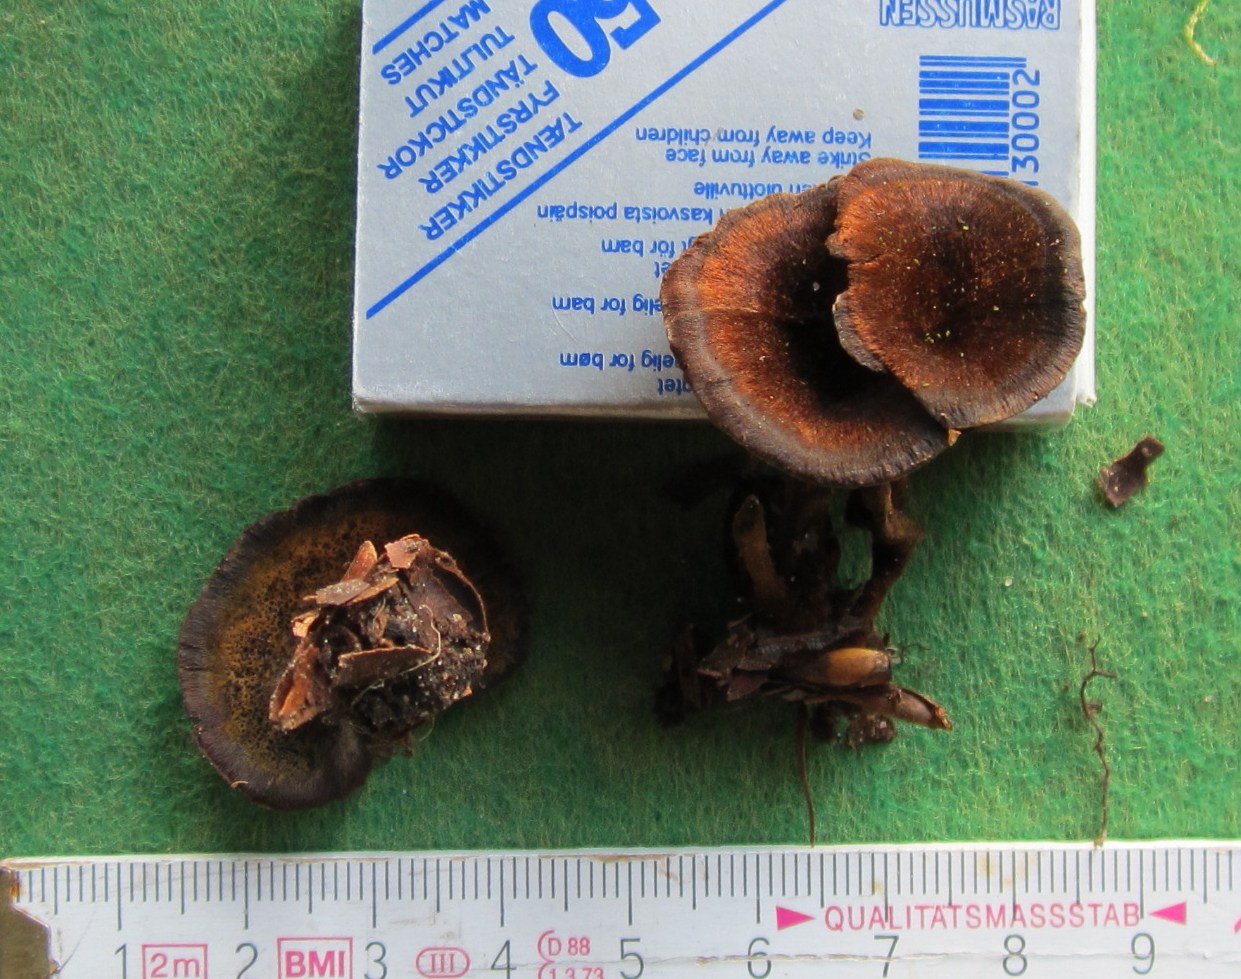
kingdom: Fungi
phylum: Basidiomycota
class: Agaricomycetes
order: Hymenochaetales
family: Hymenochaetaceae
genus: Coltricia
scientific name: Coltricia perennis
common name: almindelig sandporesvamp
